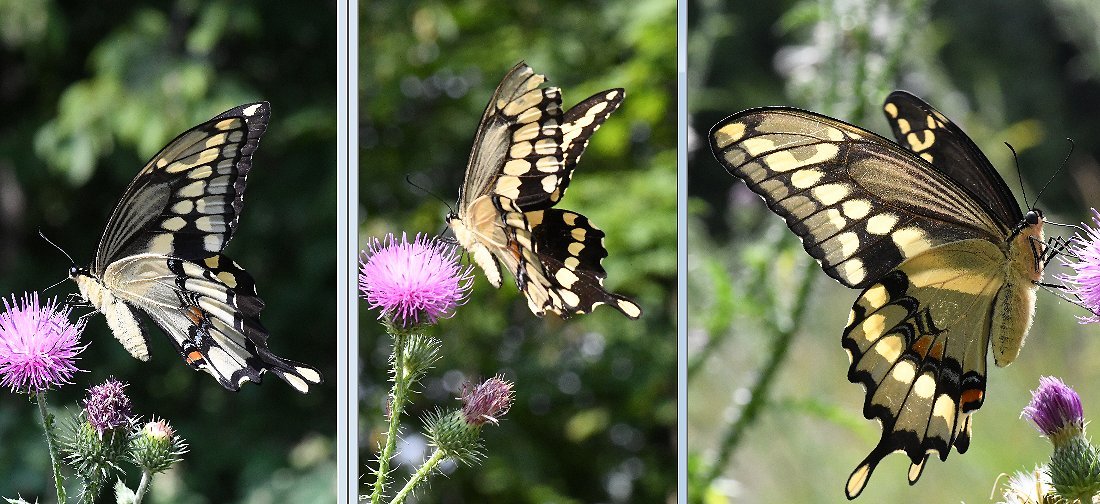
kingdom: Animalia
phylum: Arthropoda
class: Insecta
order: Lepidoptera
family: Papilionidae
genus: Papilio
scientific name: Papilio cresphontes
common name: Eastern Giant Swallowtail
